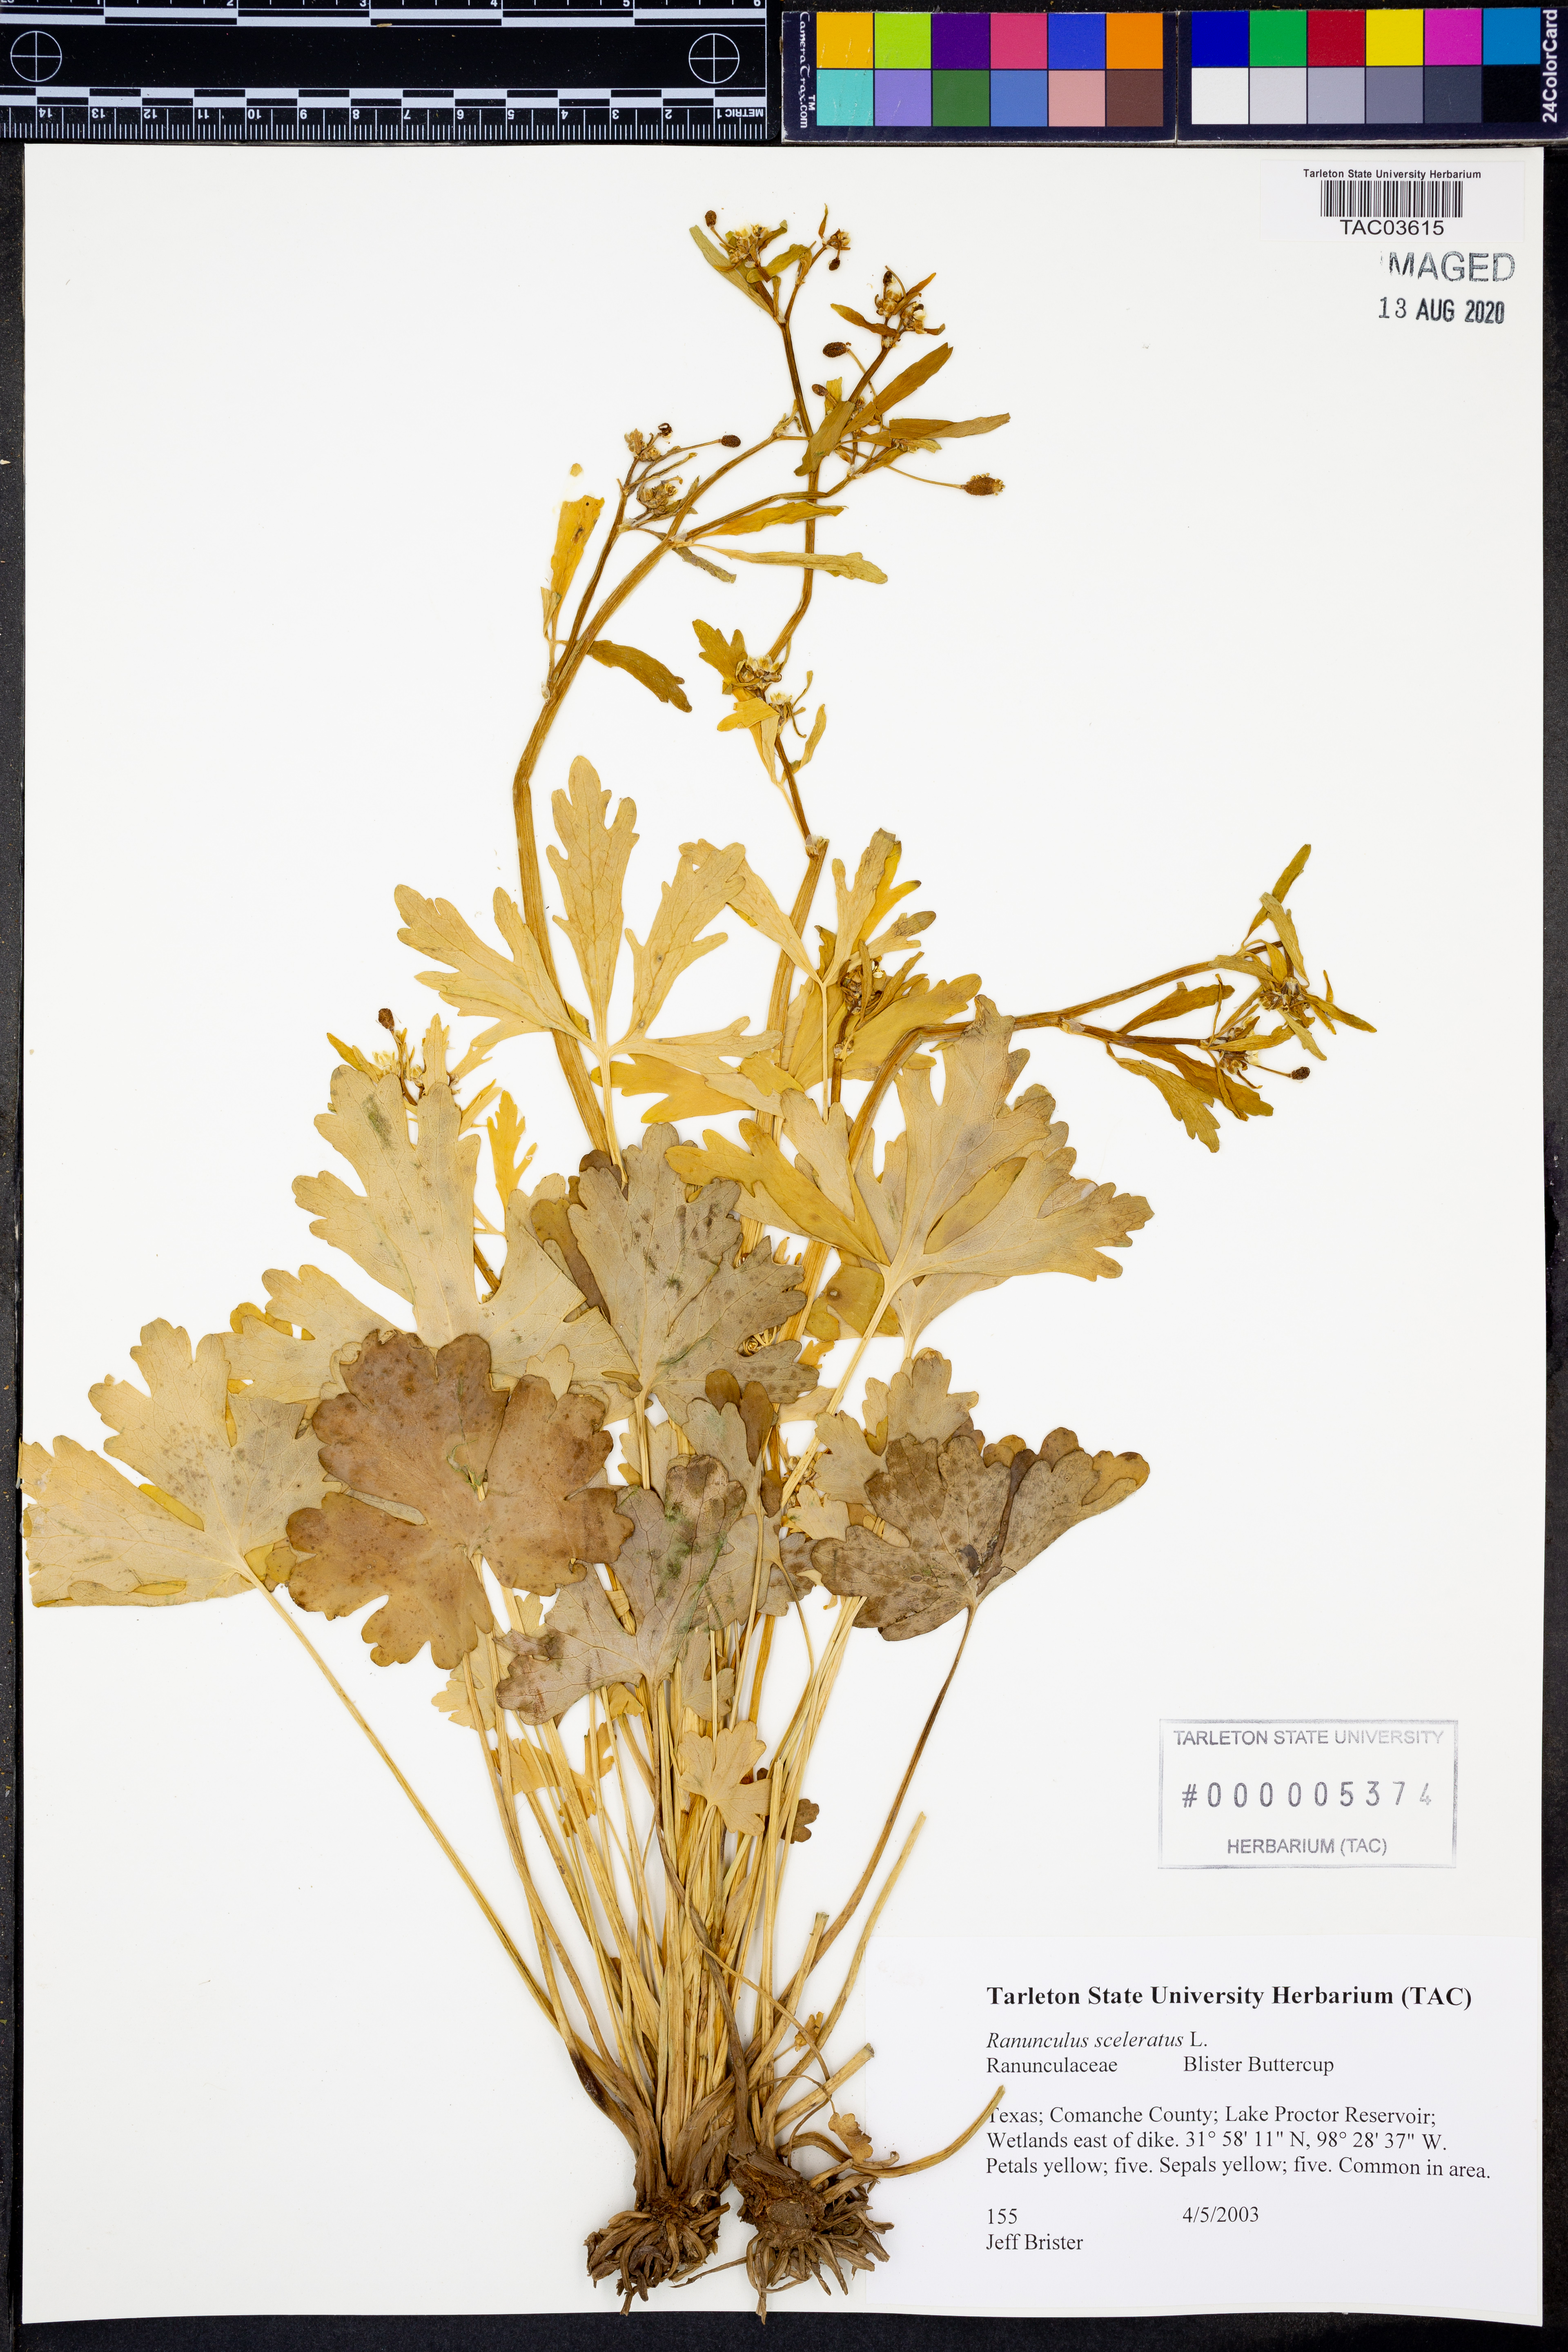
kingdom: Plantae
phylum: Tracheophyta
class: Magnoliopsida
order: Ranunculales
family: Ranunculaceae
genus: Ranunculus
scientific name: Ranunculus sceleratus
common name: Celery-leaved buttercup
